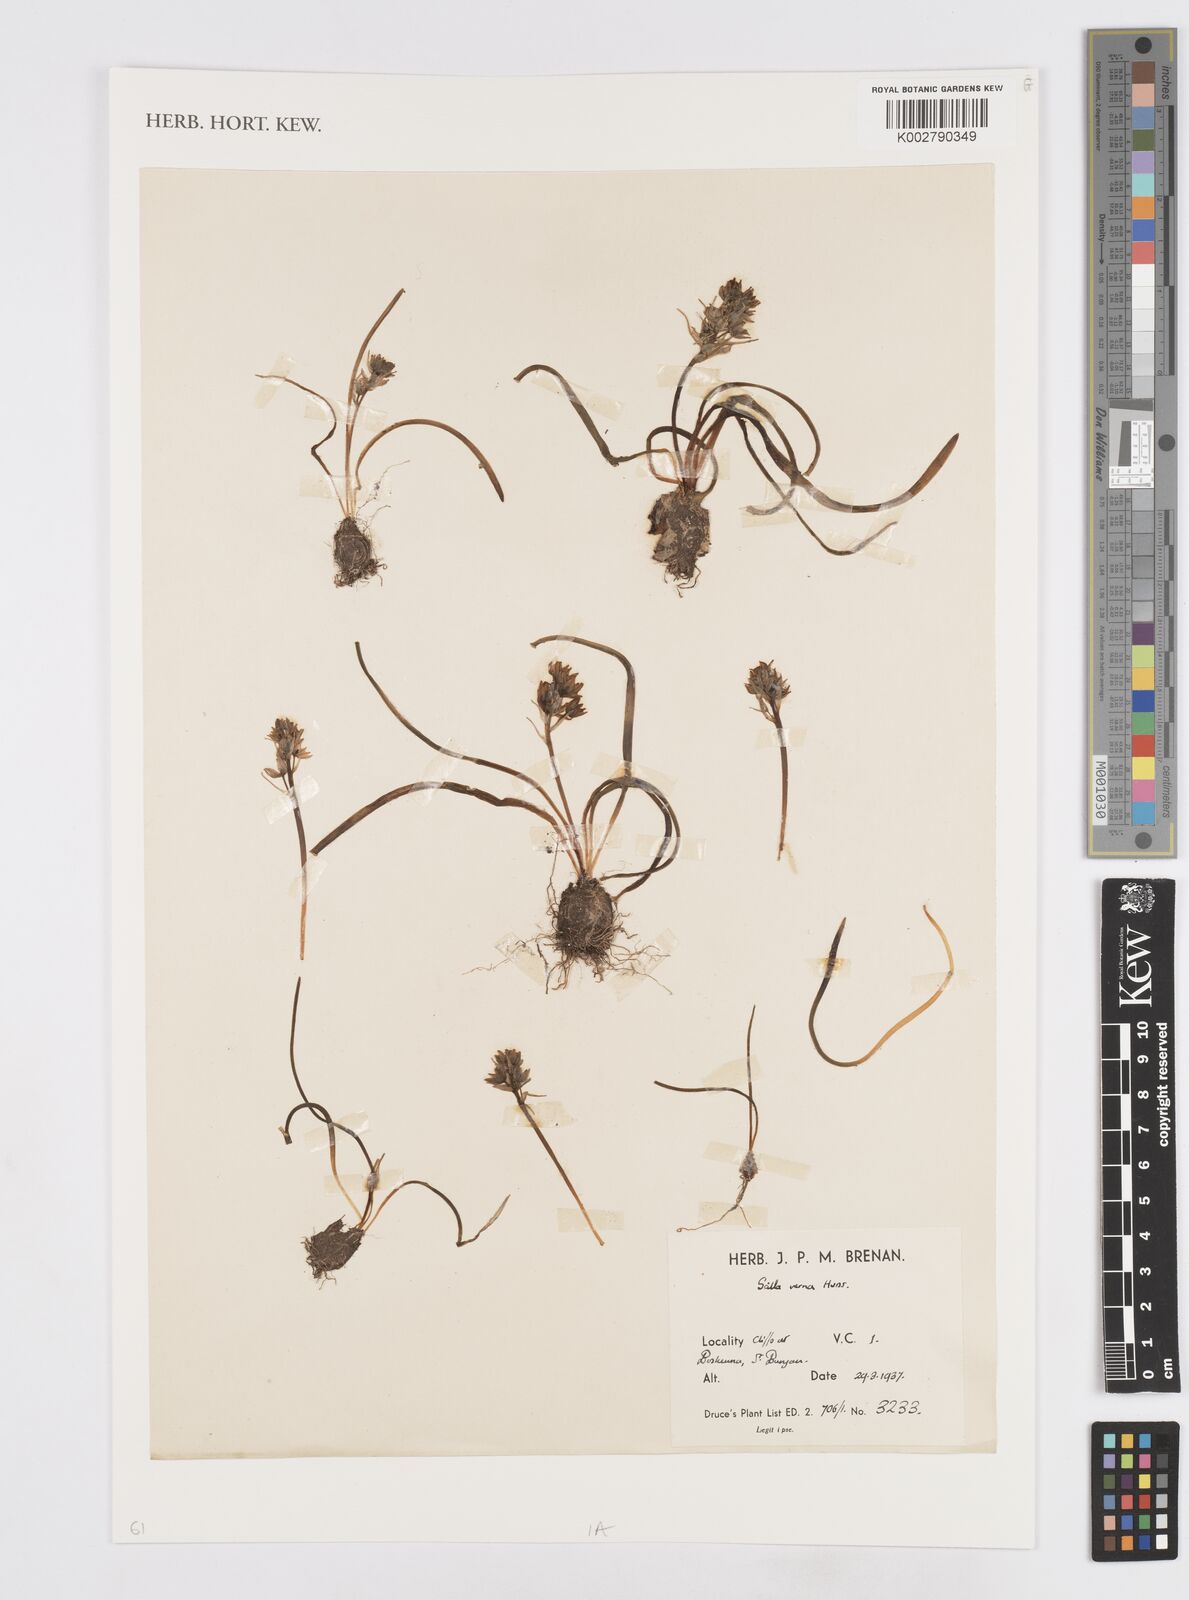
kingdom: Plantae
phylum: Tracheophyta
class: Liliopsida
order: Asparagales
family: Asparagaceae
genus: Scilla
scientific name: Scilla verna
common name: Spring squill
